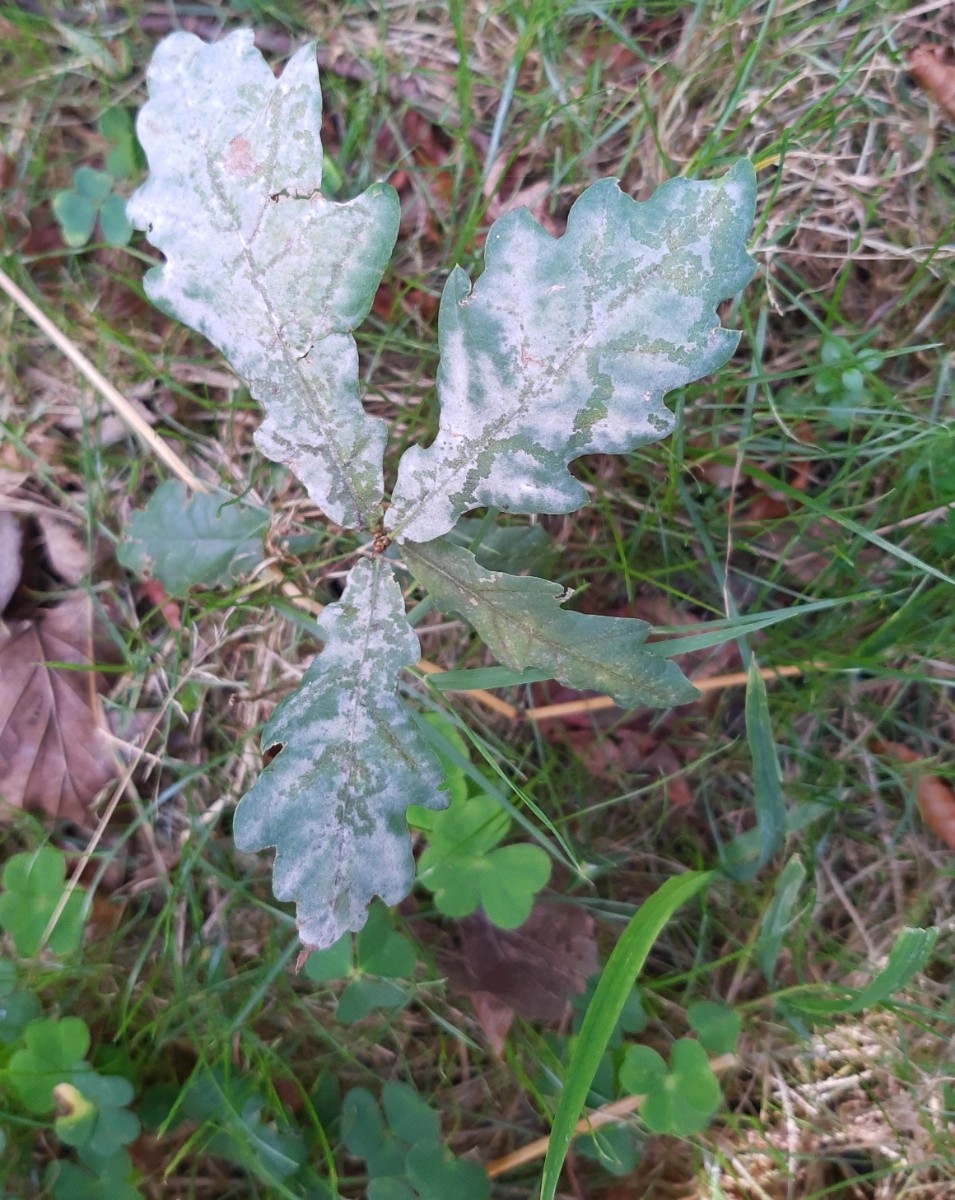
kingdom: Fungi
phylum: Ascomycota
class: Leotiomycetes
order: Helotiales
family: Erysiphaceae
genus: Erysiphe
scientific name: Erysiphe alphitoides
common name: ege-meldug
